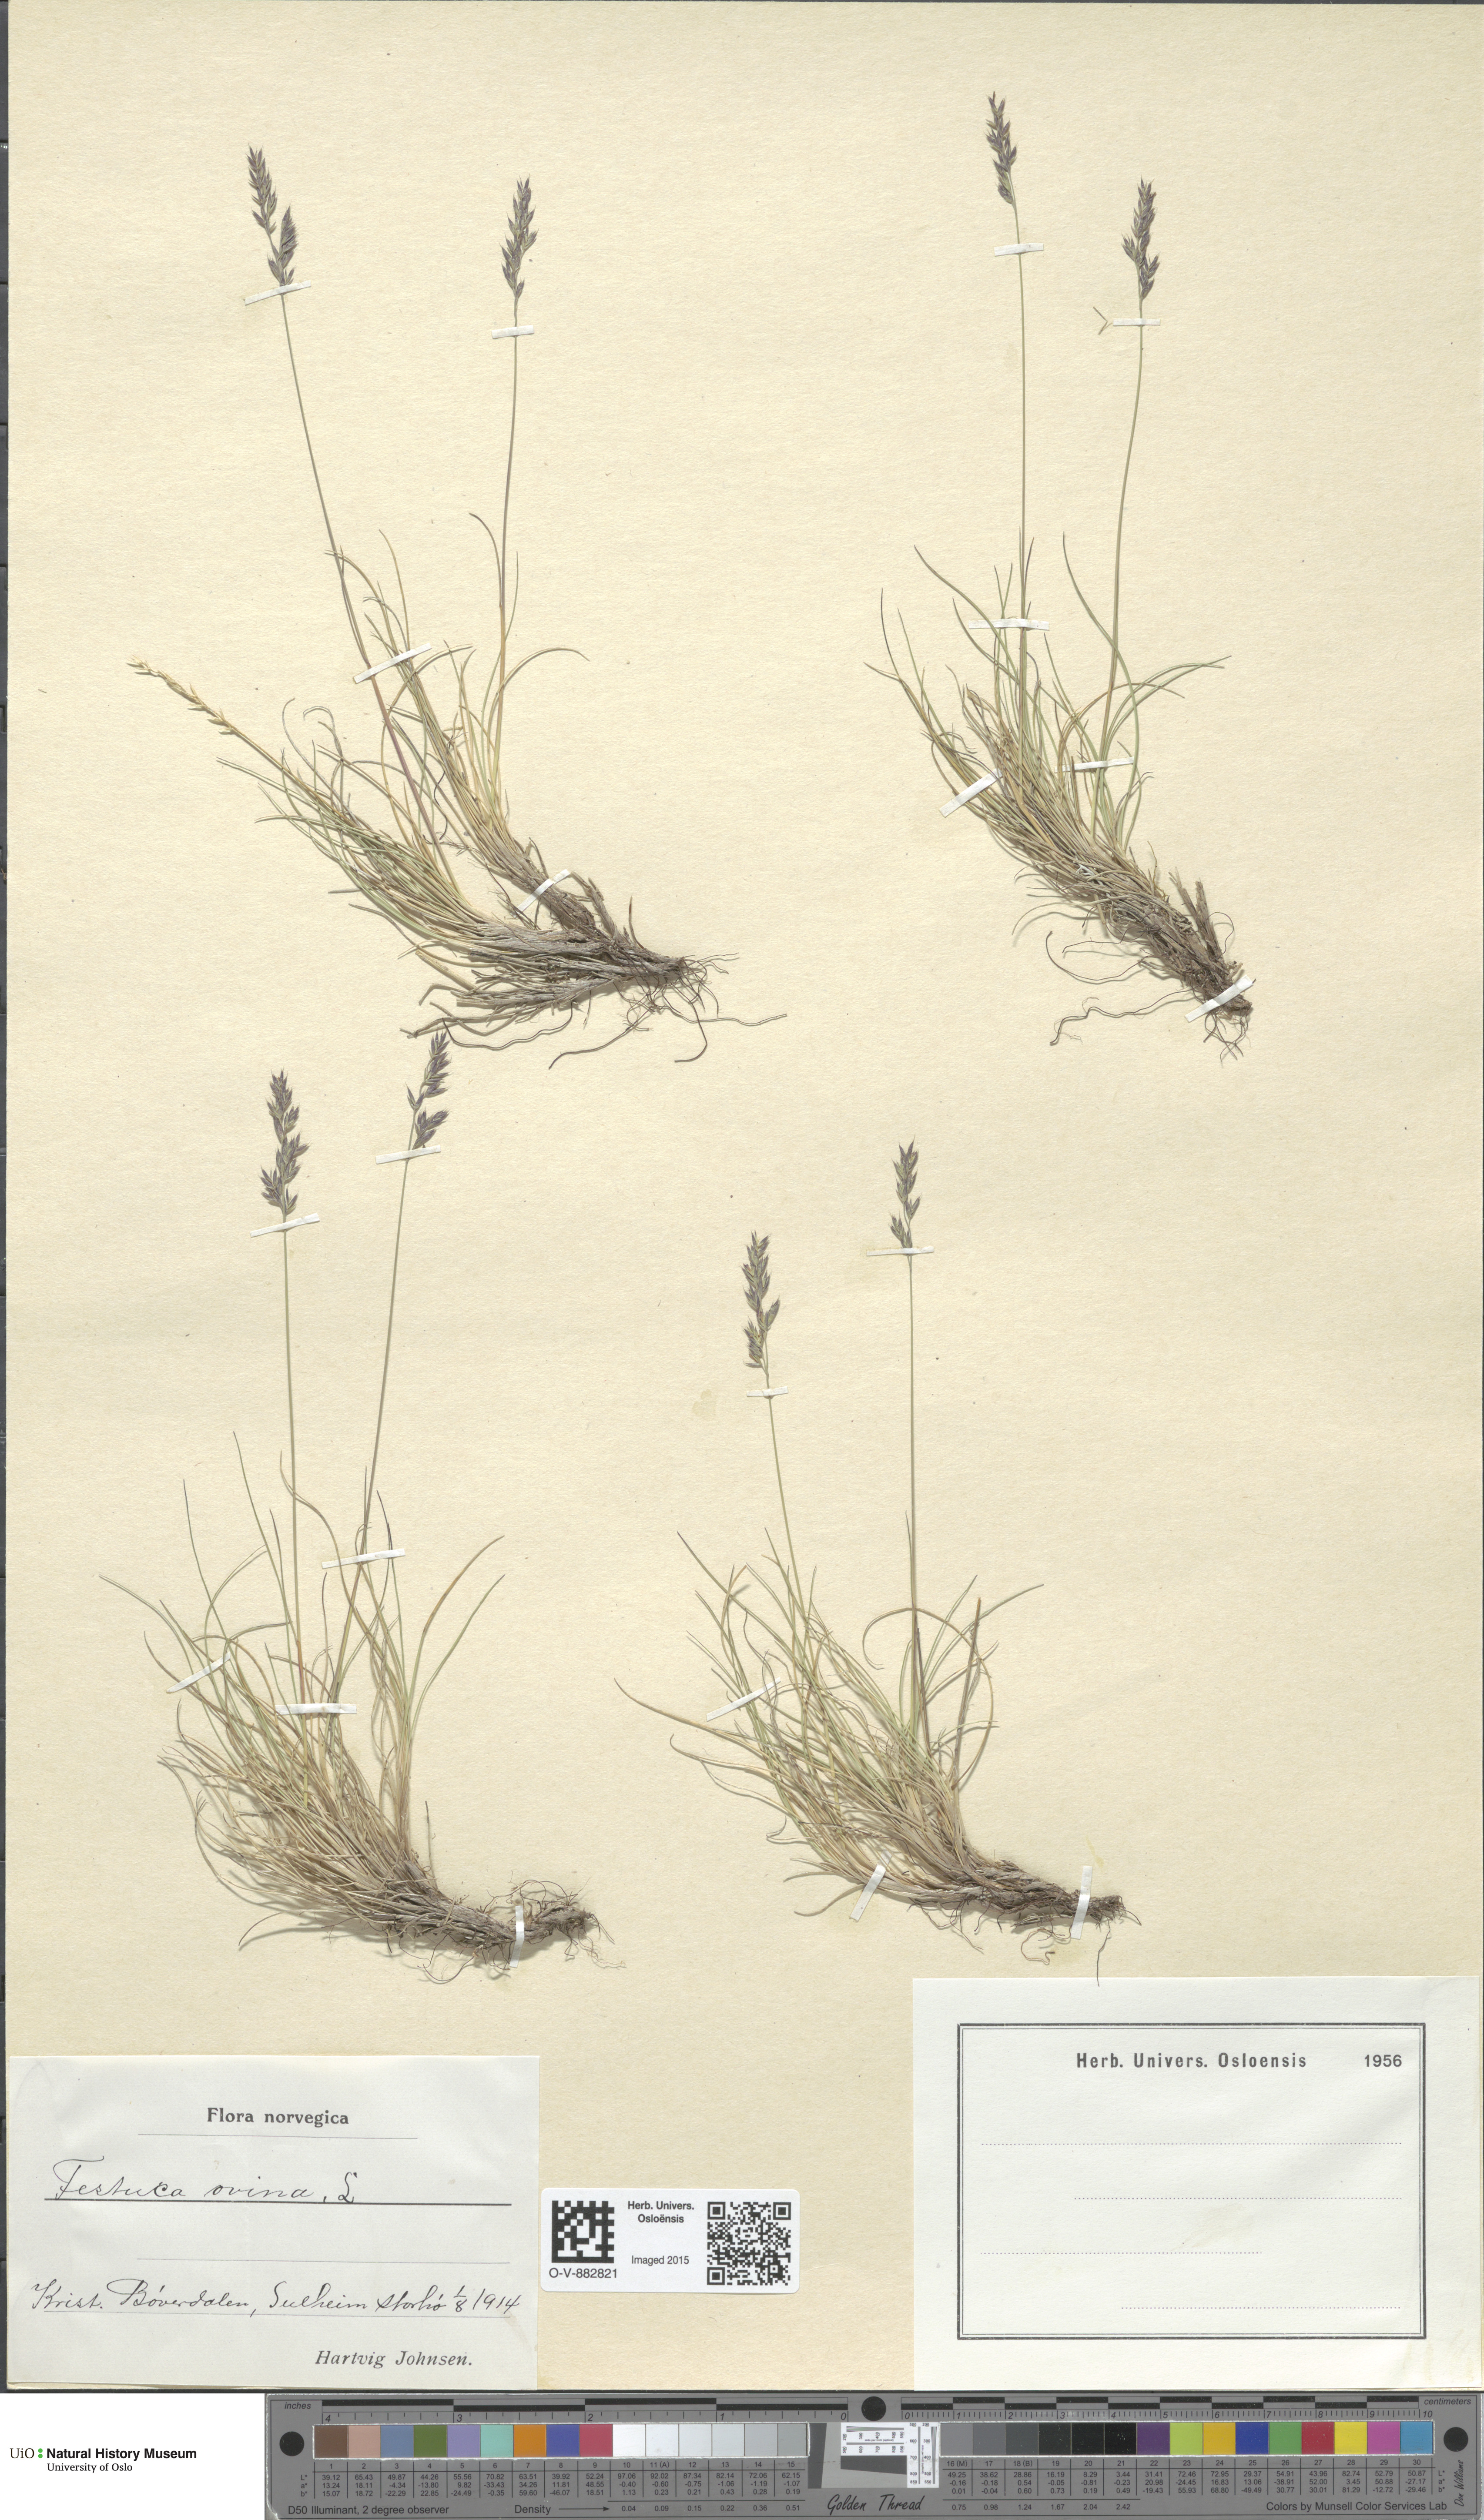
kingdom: Plantae
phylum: Tracheophyta
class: Liliopsida
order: Poales
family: Poaceae
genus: Festuca
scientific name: Festuca ovina
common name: Sheep fescue
